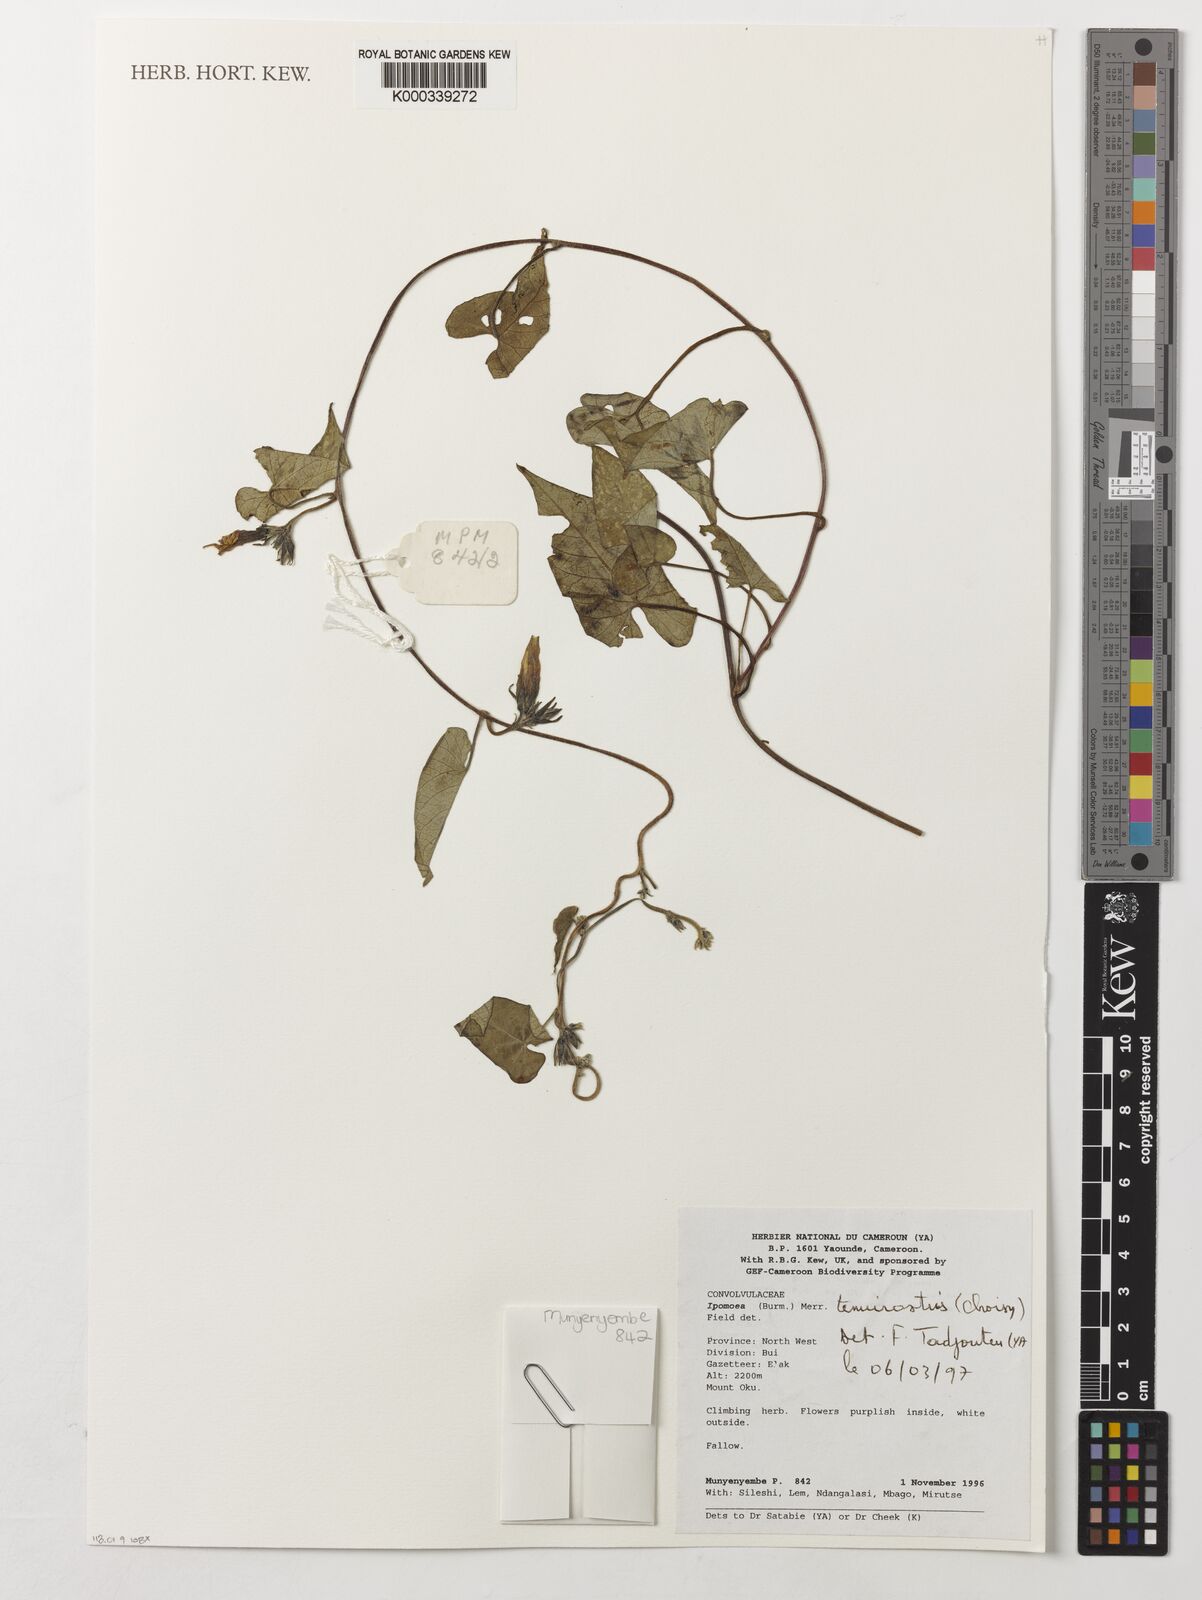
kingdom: Plantae
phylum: Tracheophyta
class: Magnoliopsida
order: Solanales
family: Convolvulaceae
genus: Ipomoea
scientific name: Ipomoea tenuirostris
